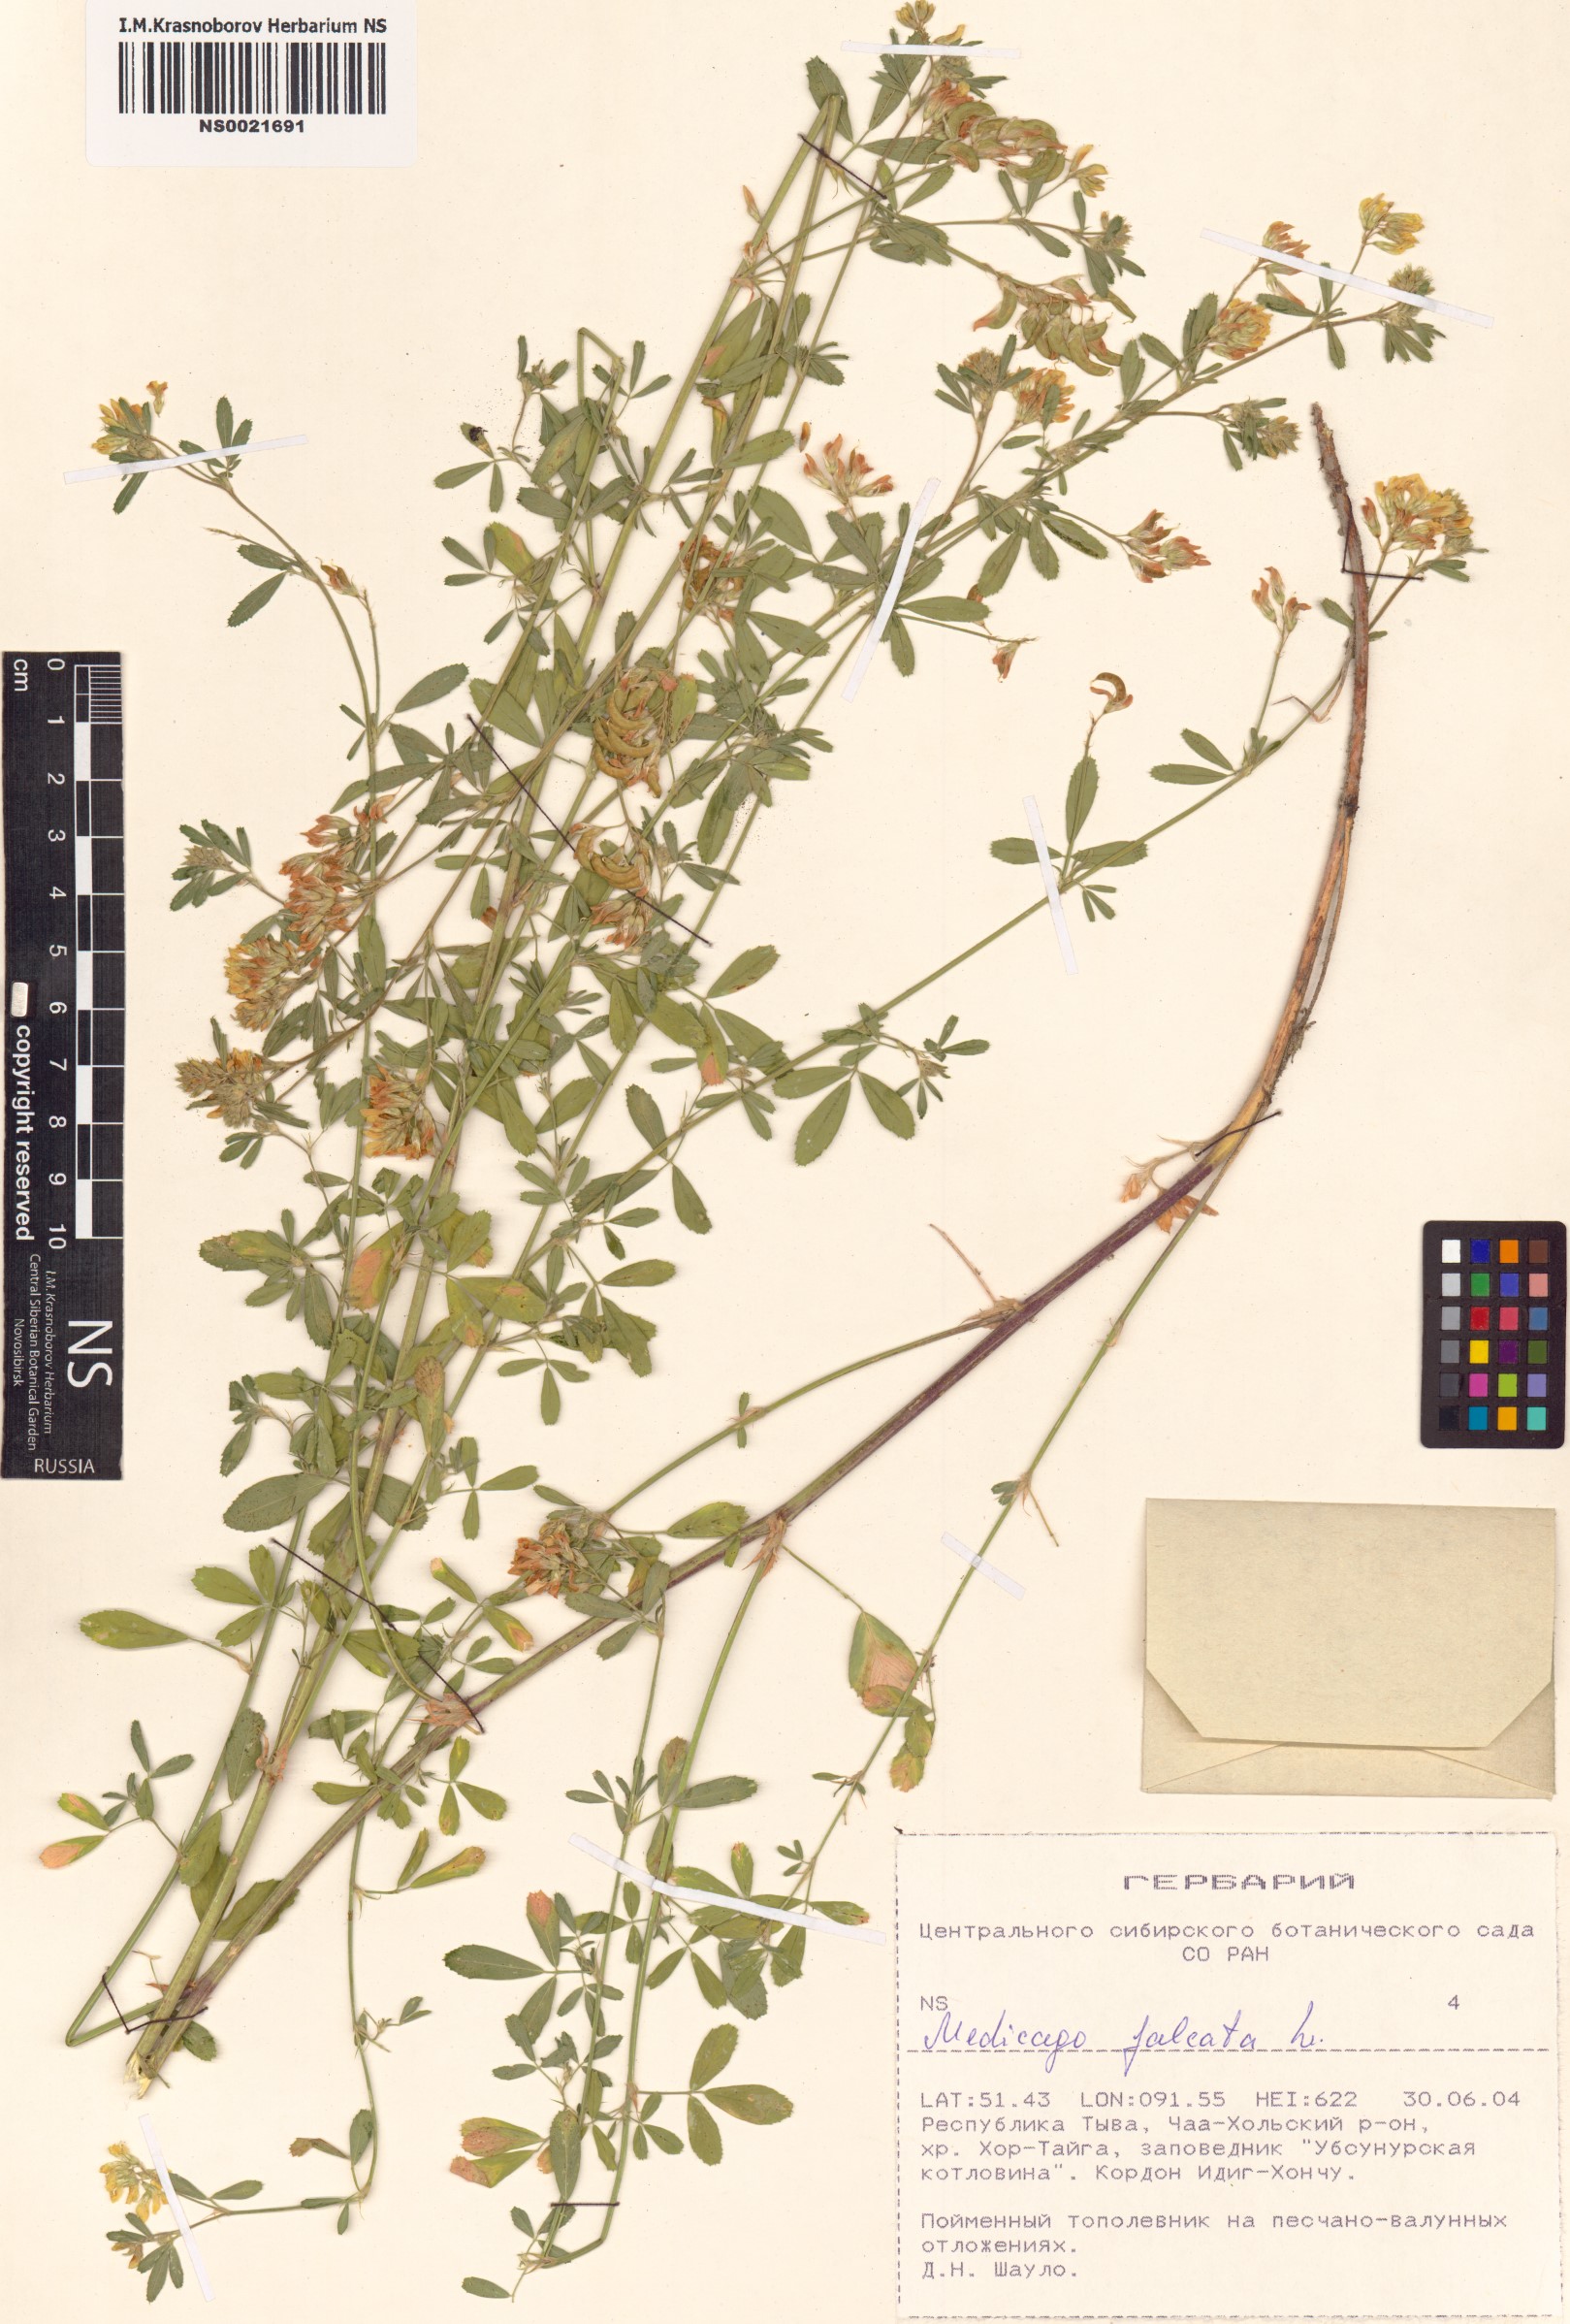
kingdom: Plantae
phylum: Tracheophyta
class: Magnoliopsida
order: Fabales
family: Fabaceae
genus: Medicago
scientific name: Medicago falcata
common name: Sickle medick
